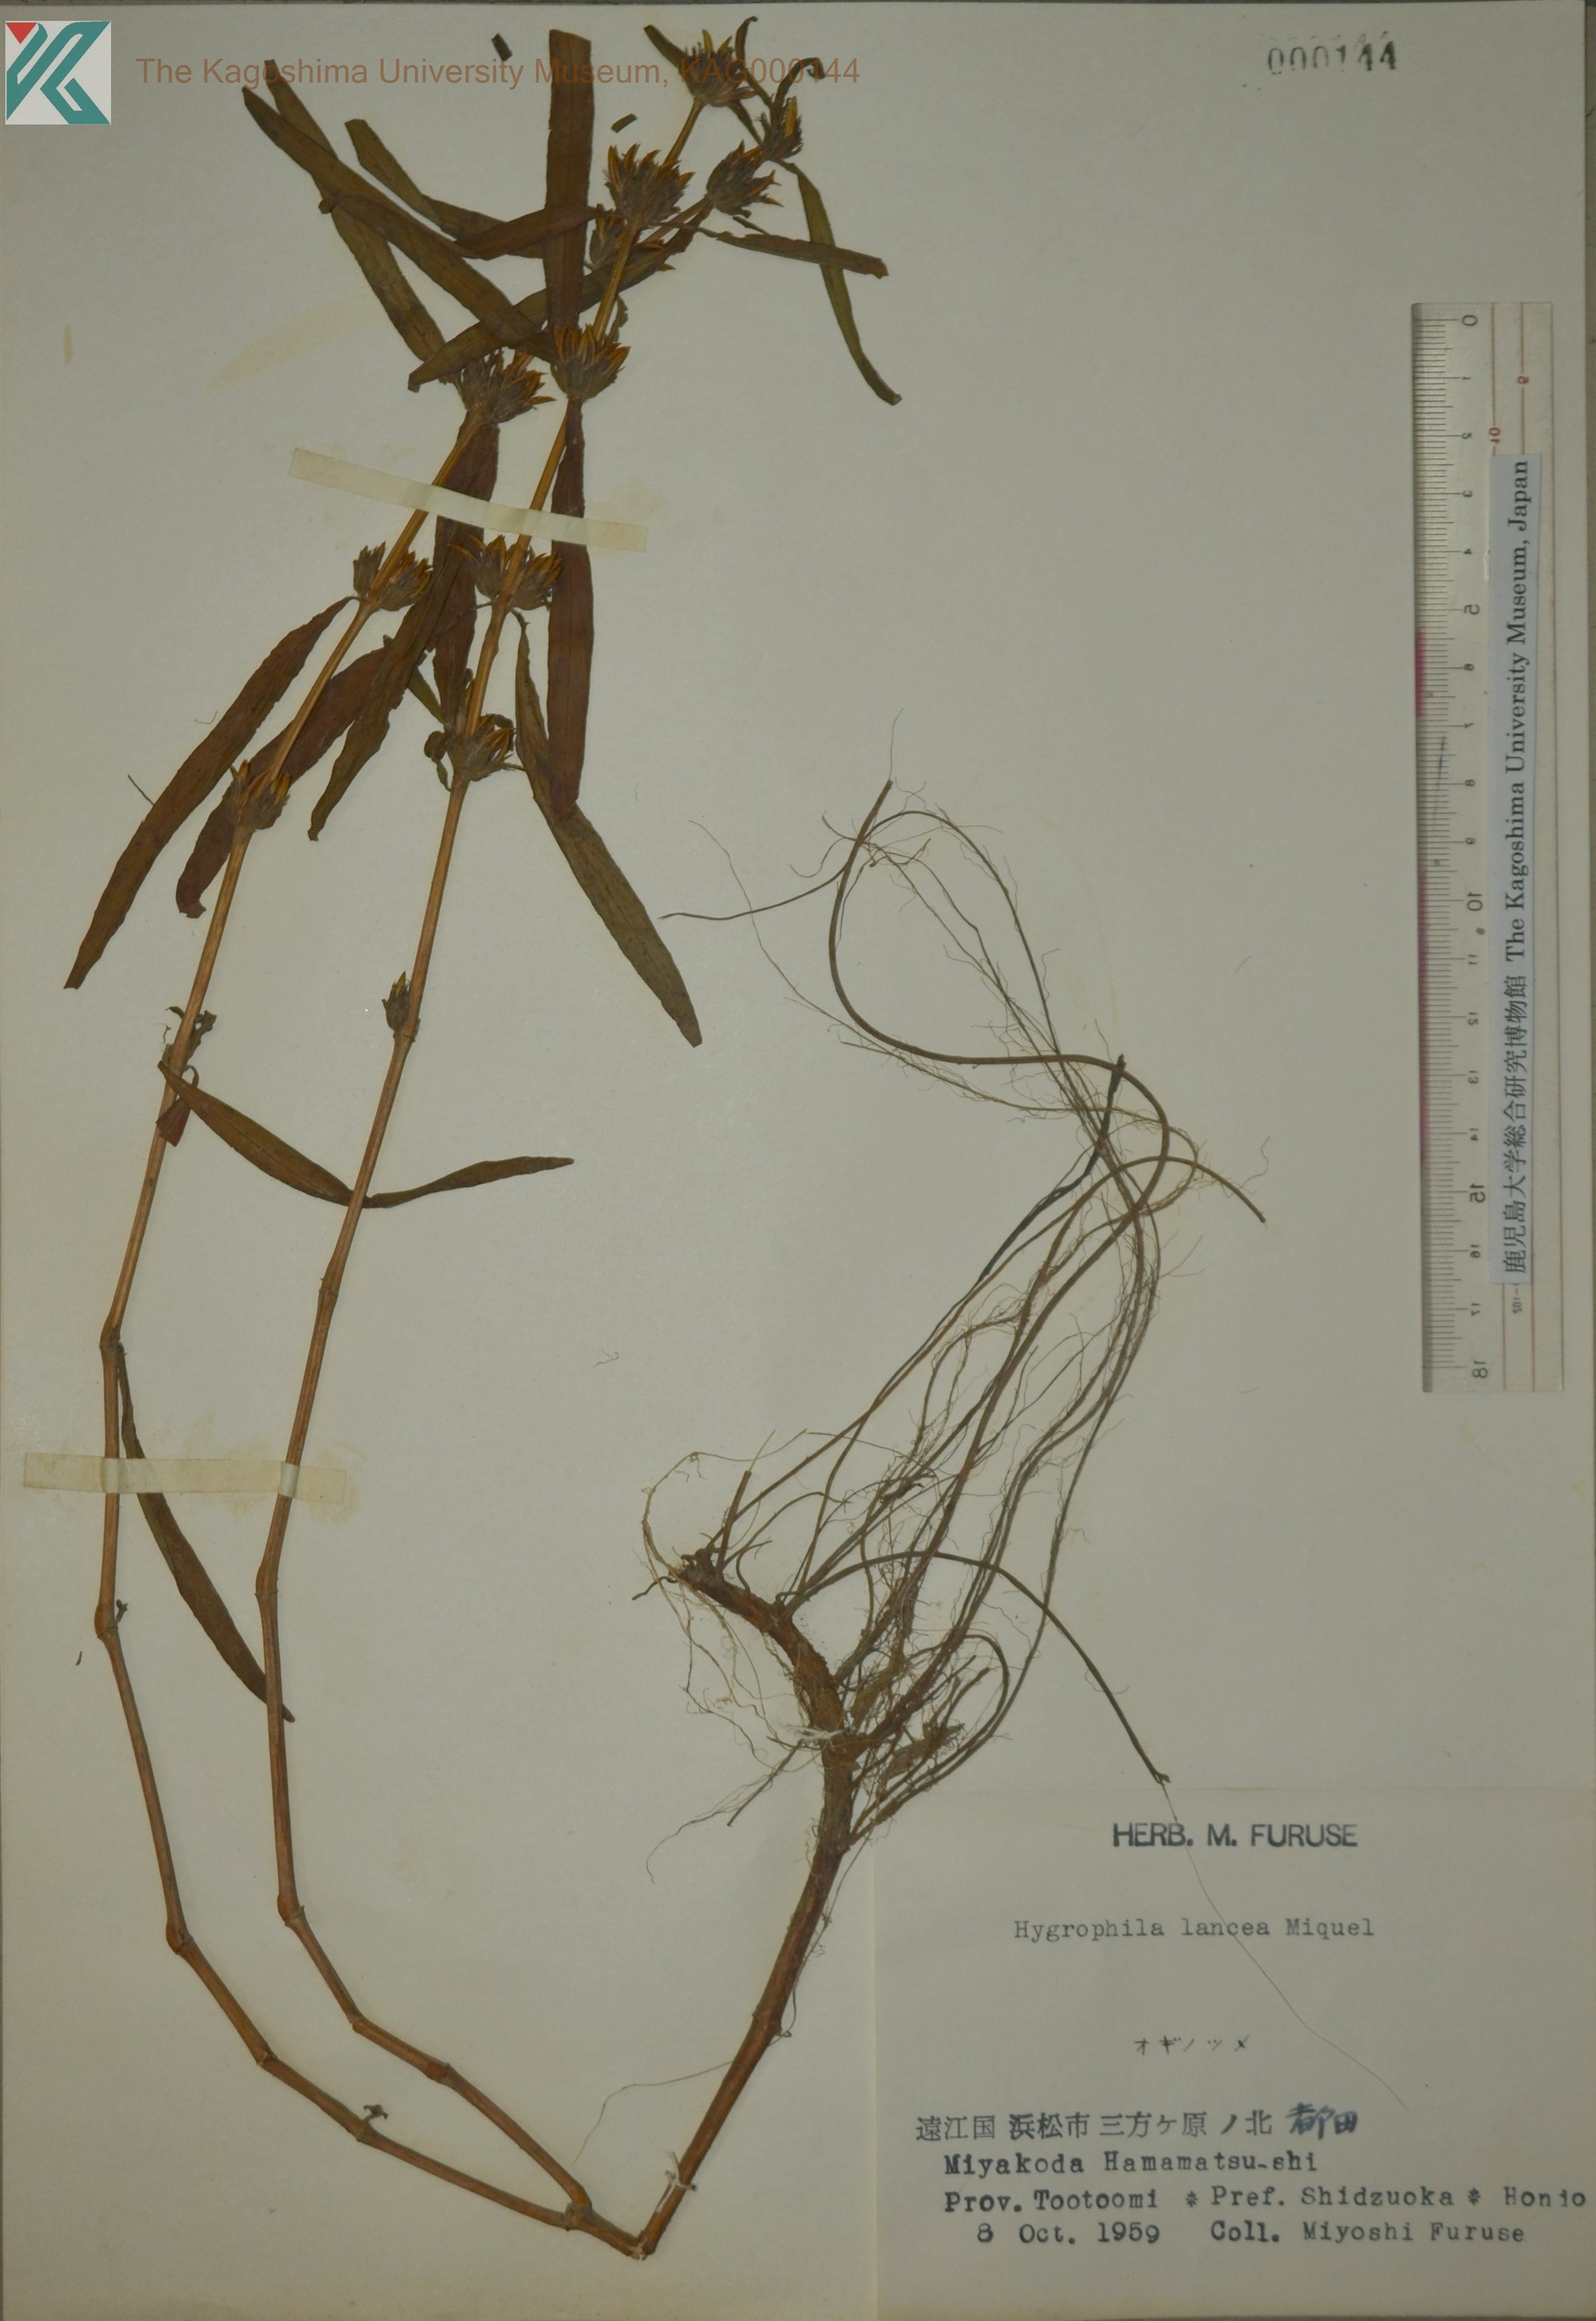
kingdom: Plantae
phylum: Tracheophyta
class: Magnoliopsida
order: Lamiales
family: Acanthaceae
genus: Hygrophila
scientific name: Hygrophila ringens
